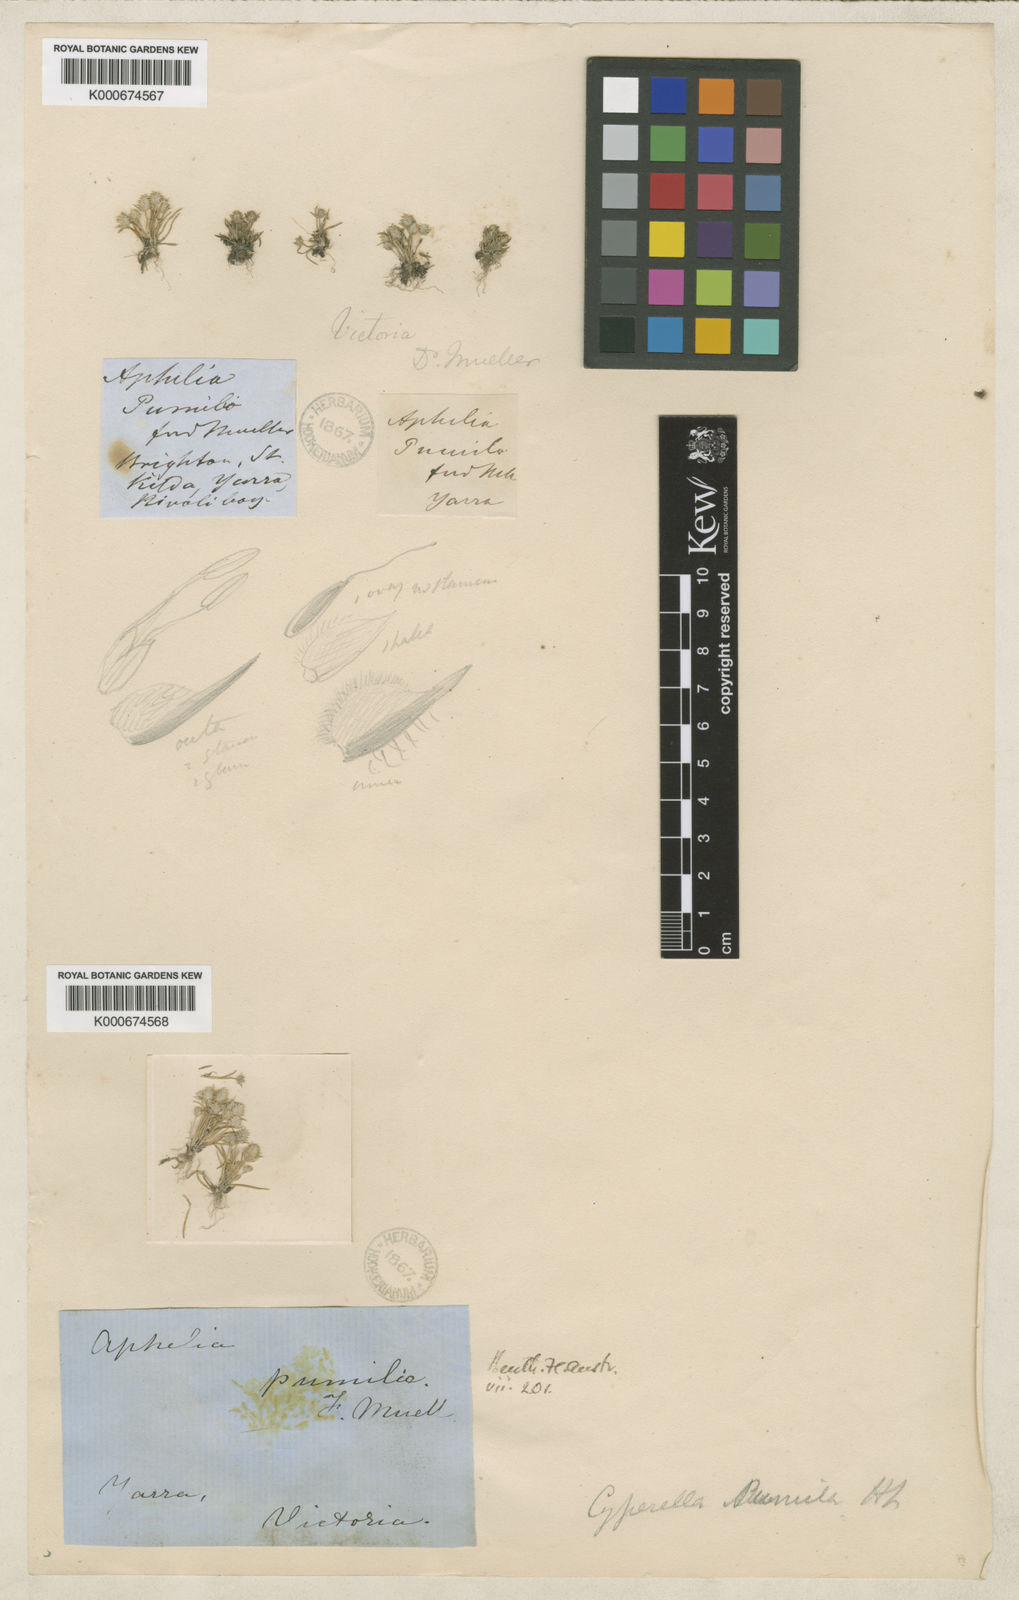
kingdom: Plantae
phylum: Tracheophyta
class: Liliopsida
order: Poales
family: Restionaceae
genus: Aphelia
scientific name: Aphelia pumilio
